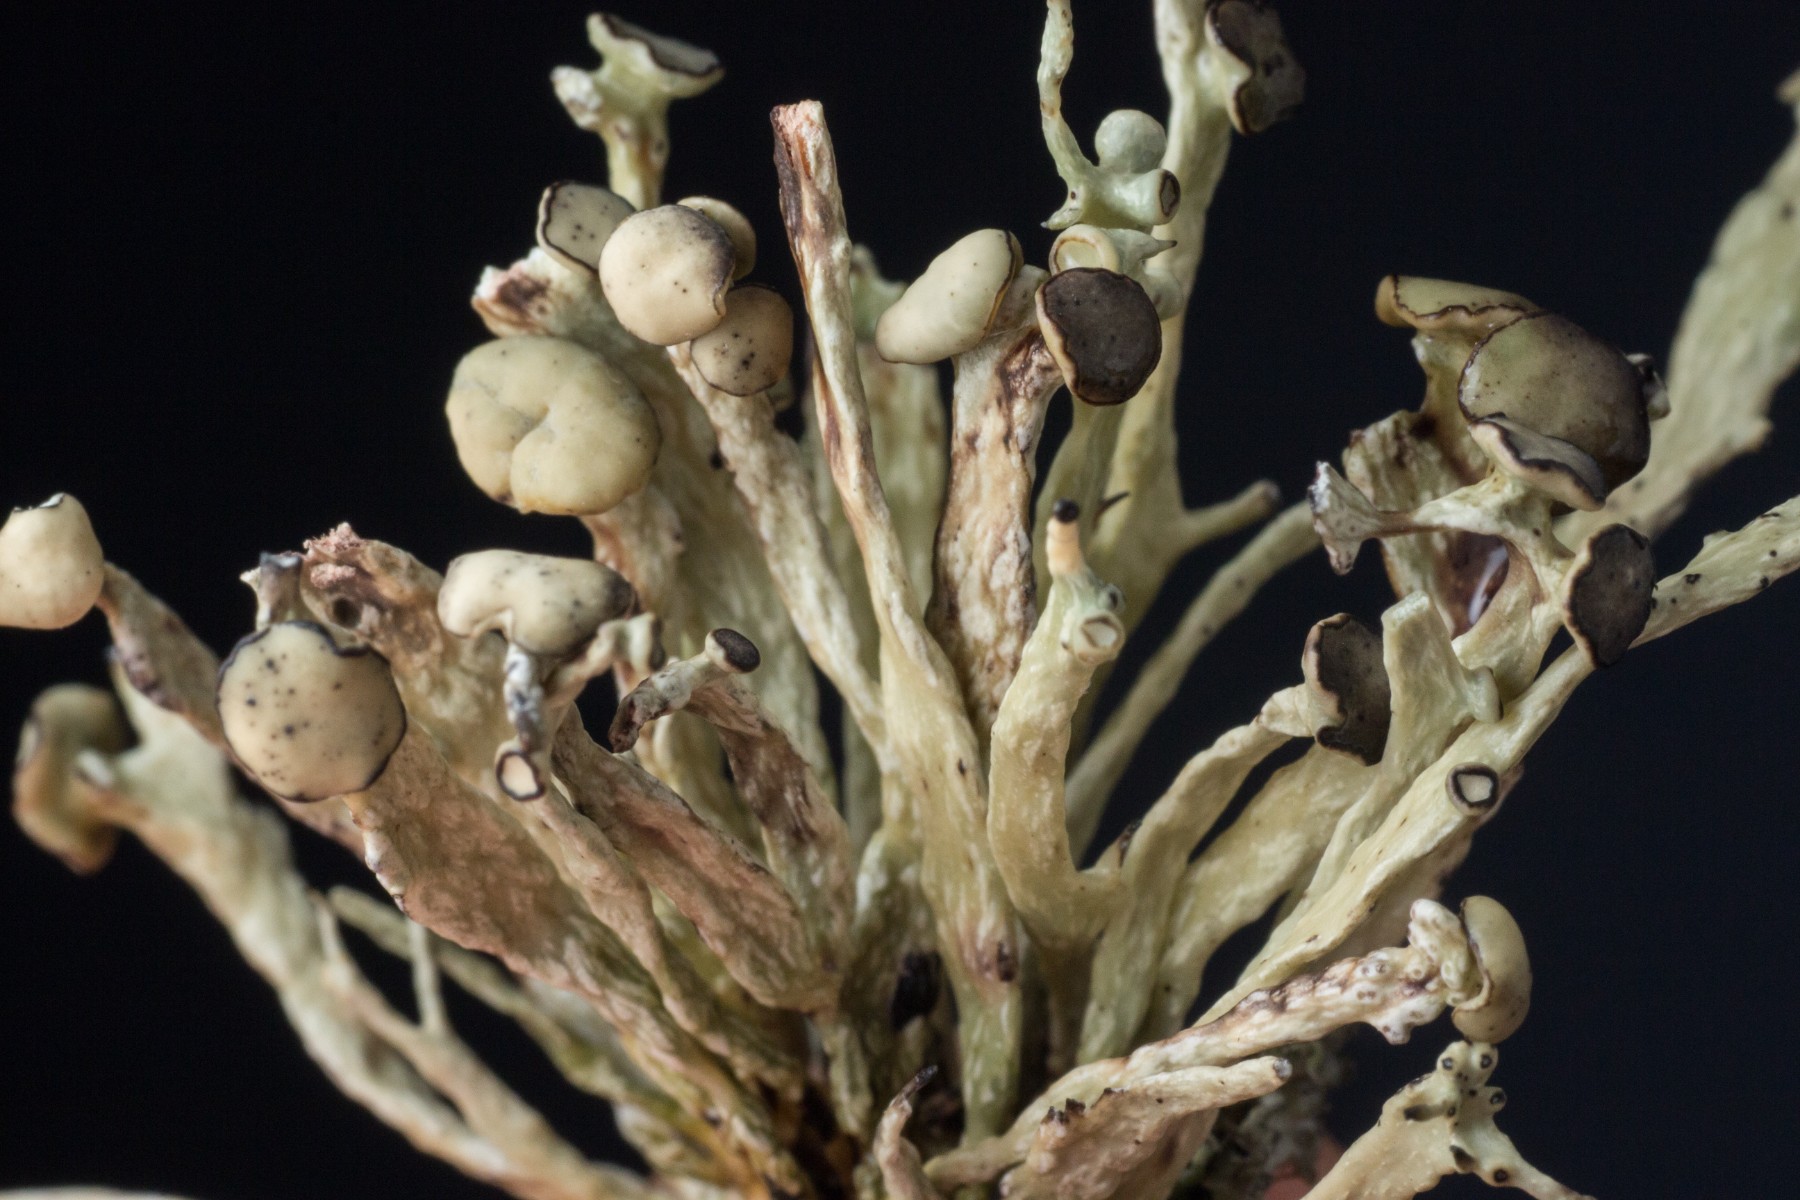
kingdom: Fungi
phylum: Ascomycota
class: Lecanoromycetes
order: Lecanorales
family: Ramalinaceae
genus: Ramalina
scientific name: Ramalina cuspidata
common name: børste-grenlav
